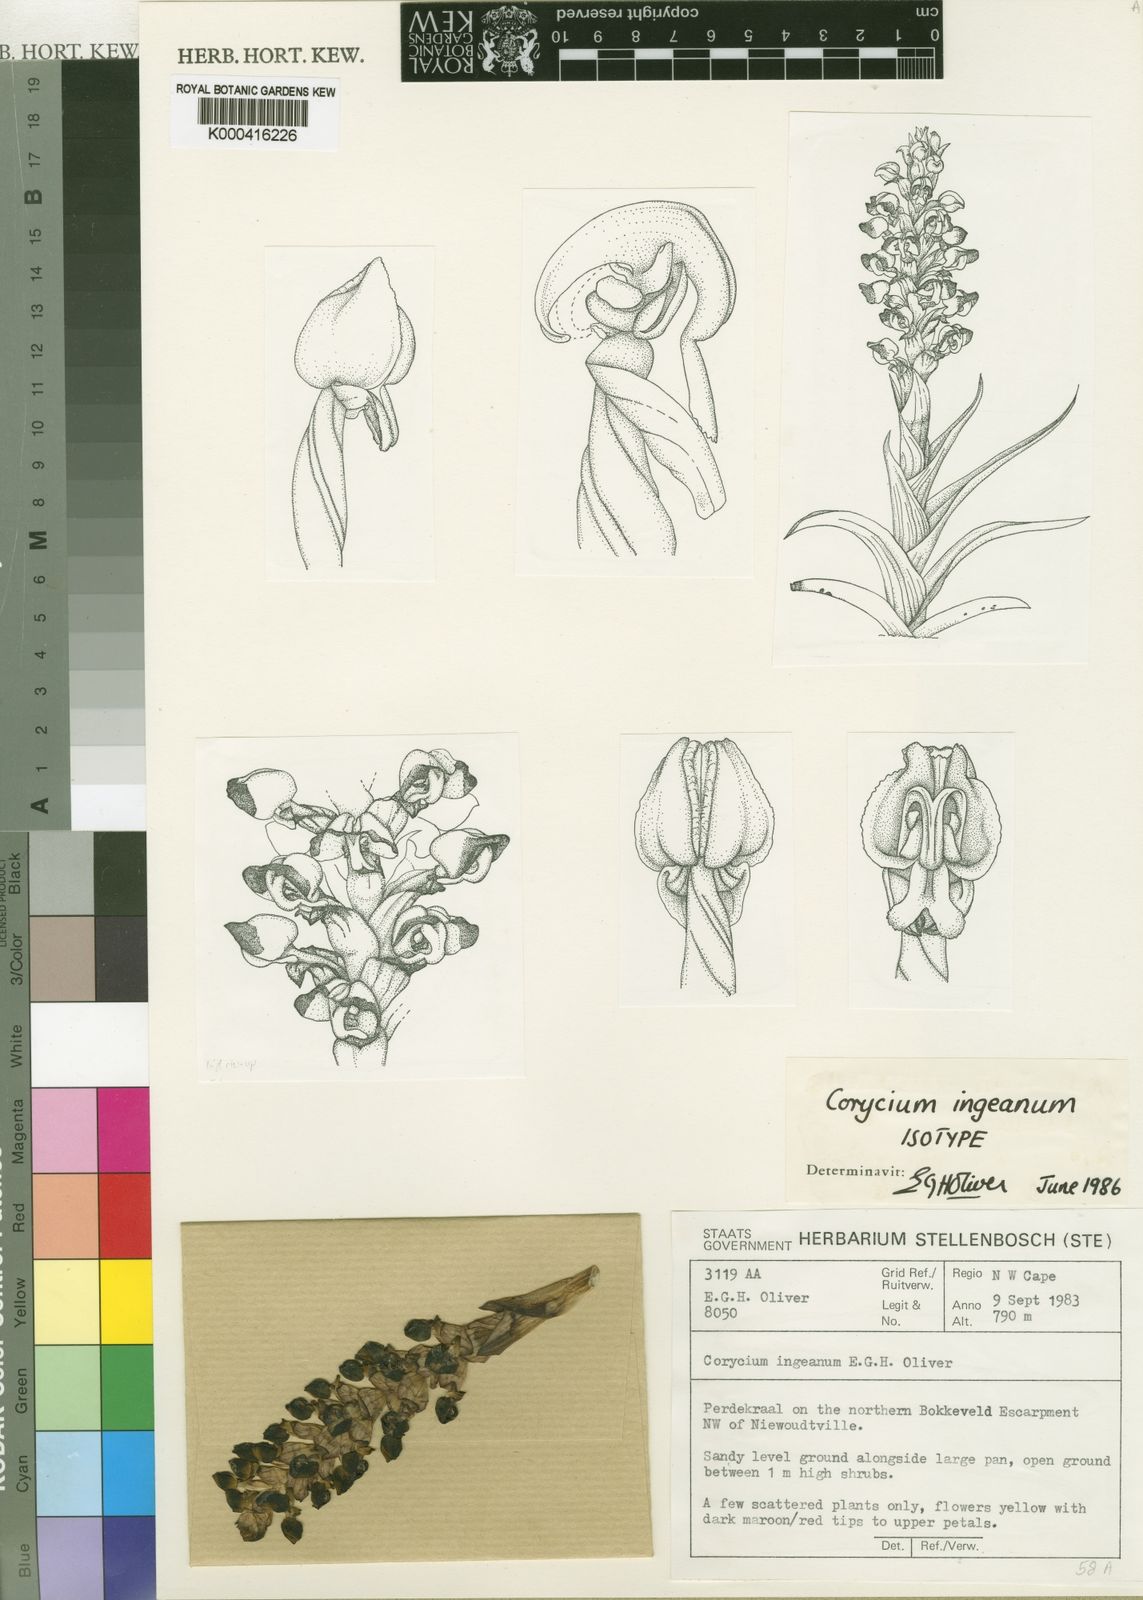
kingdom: Plantae
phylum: Tracheophyta
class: Liliopsida
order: Asparagales
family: Orchidaceae
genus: Corycium
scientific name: Corycium ingeanum
